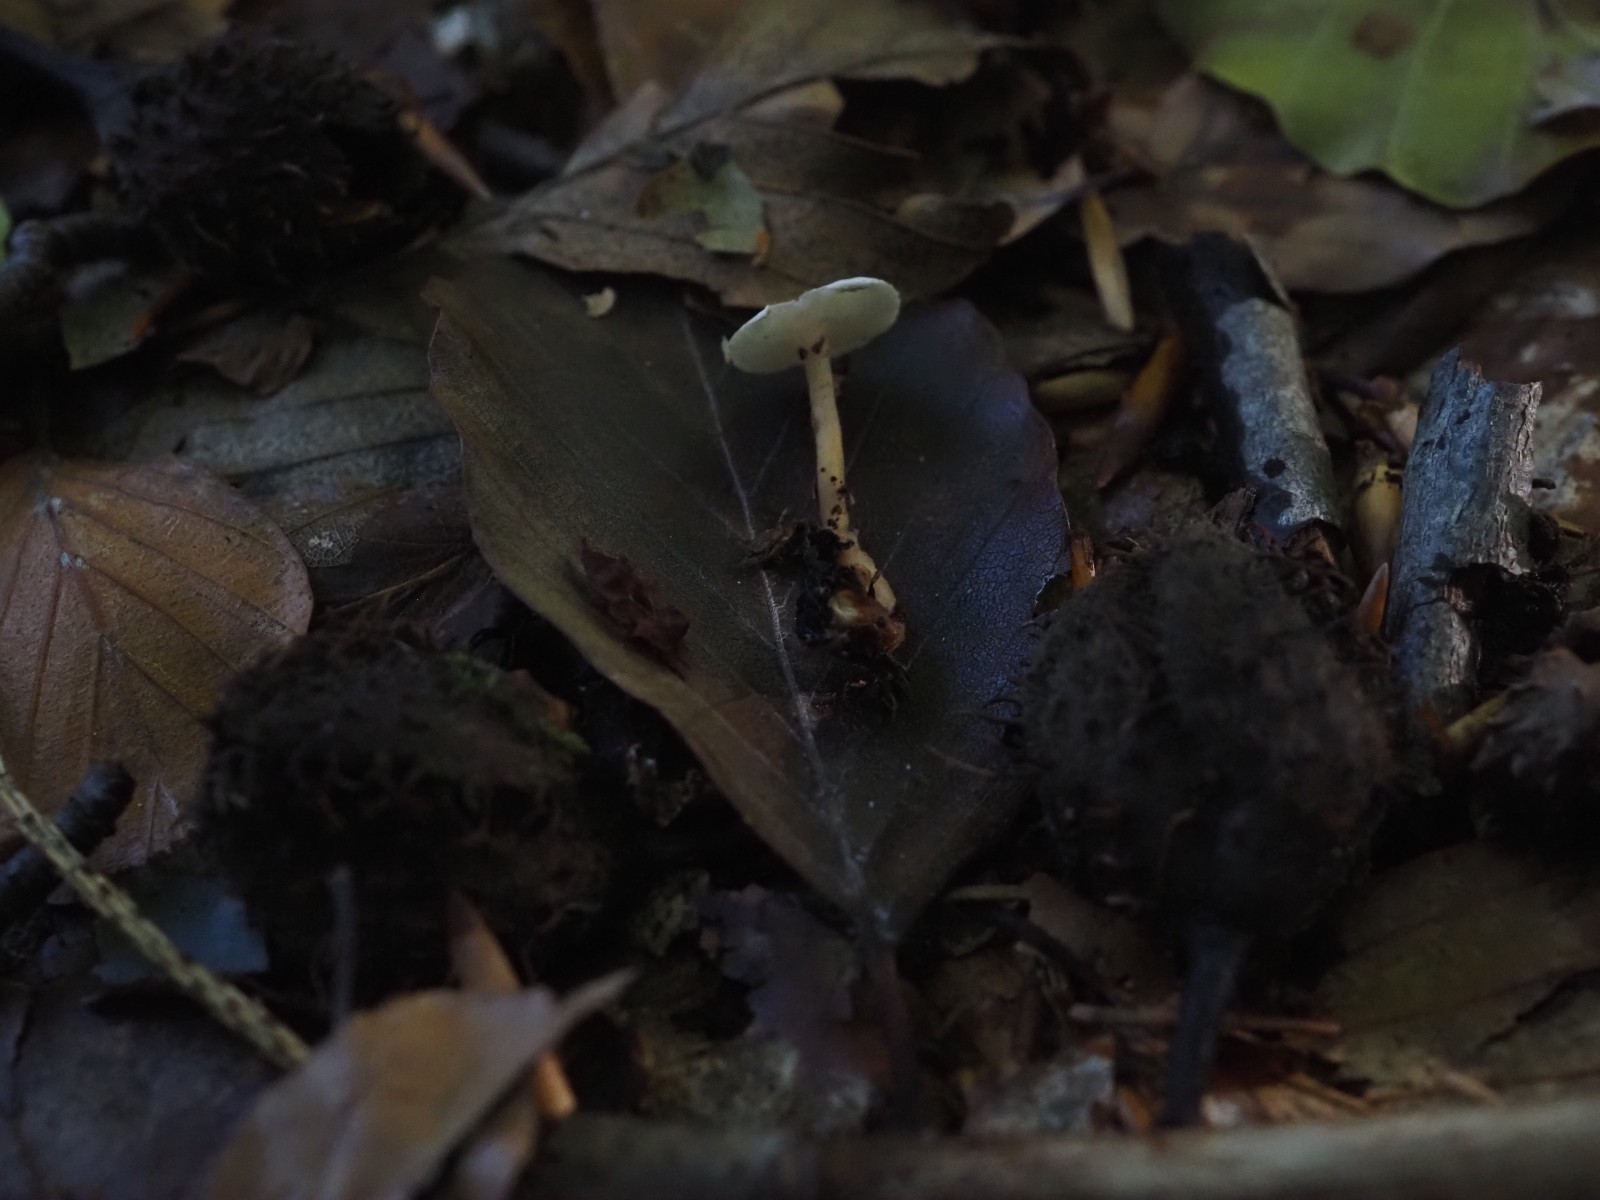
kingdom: Fungi
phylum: Basidiomycota
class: Agaricomycetes
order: Agaricales
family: Tricholomataceae
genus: Collybia
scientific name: Collybia
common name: lighat
